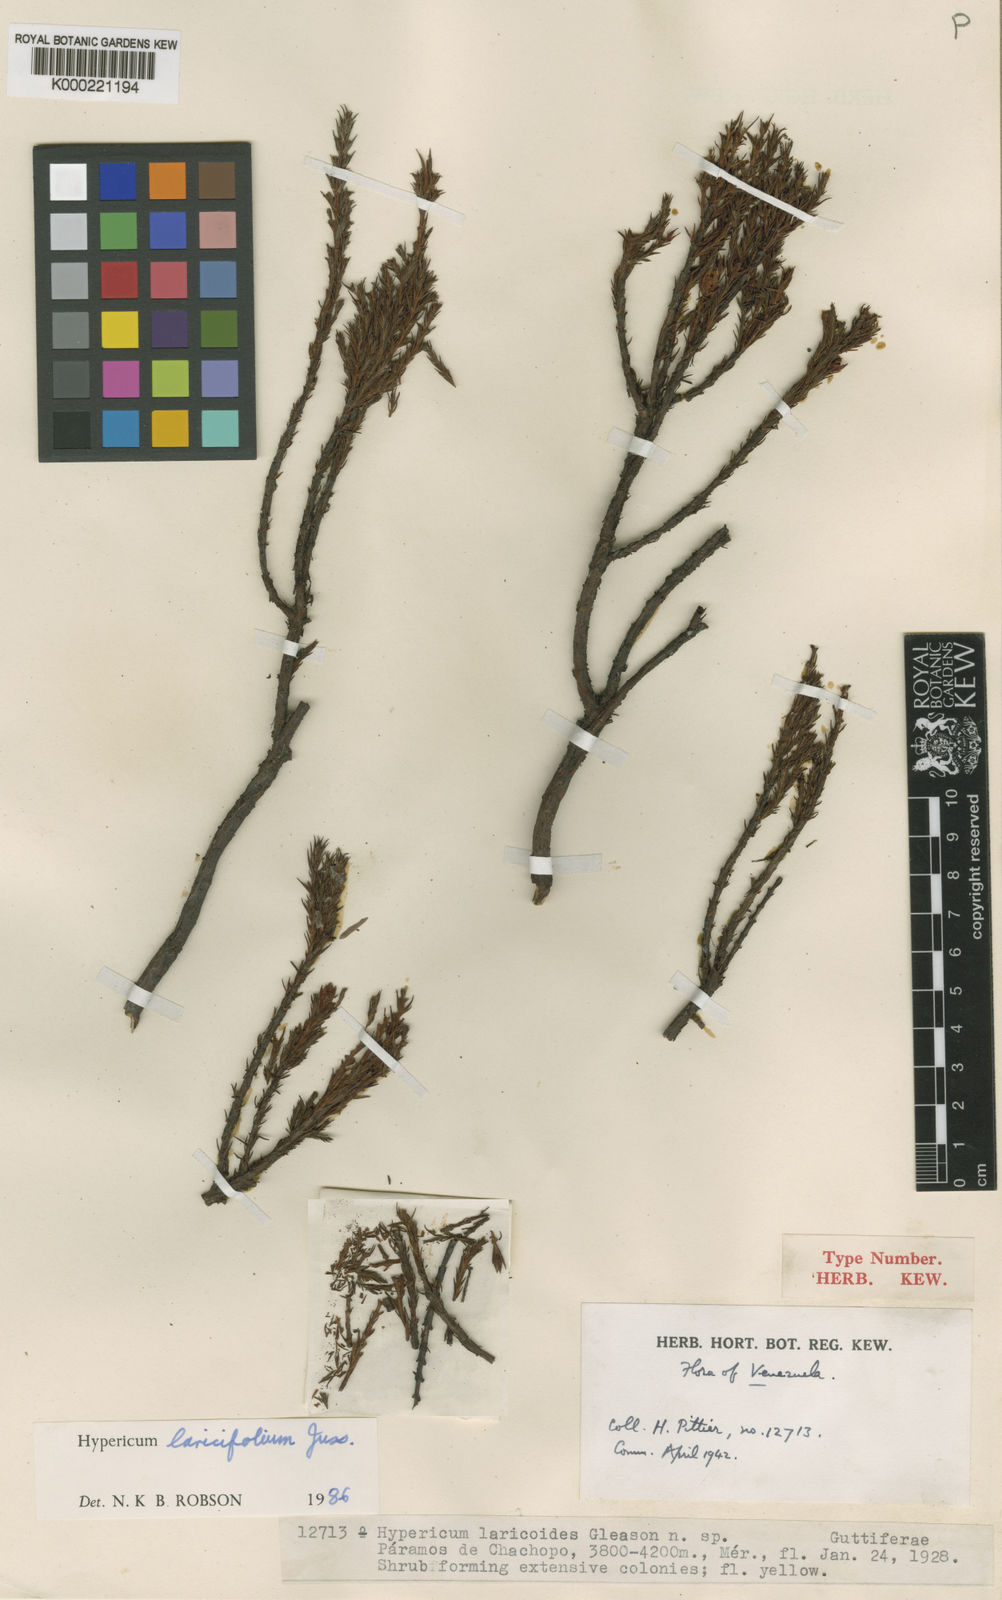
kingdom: Plantae
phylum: Tracheophyta
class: Magnoliopsida
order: Malpighiales
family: Hypericaceae
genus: Hypericum
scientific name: Hypericum laricifolium
